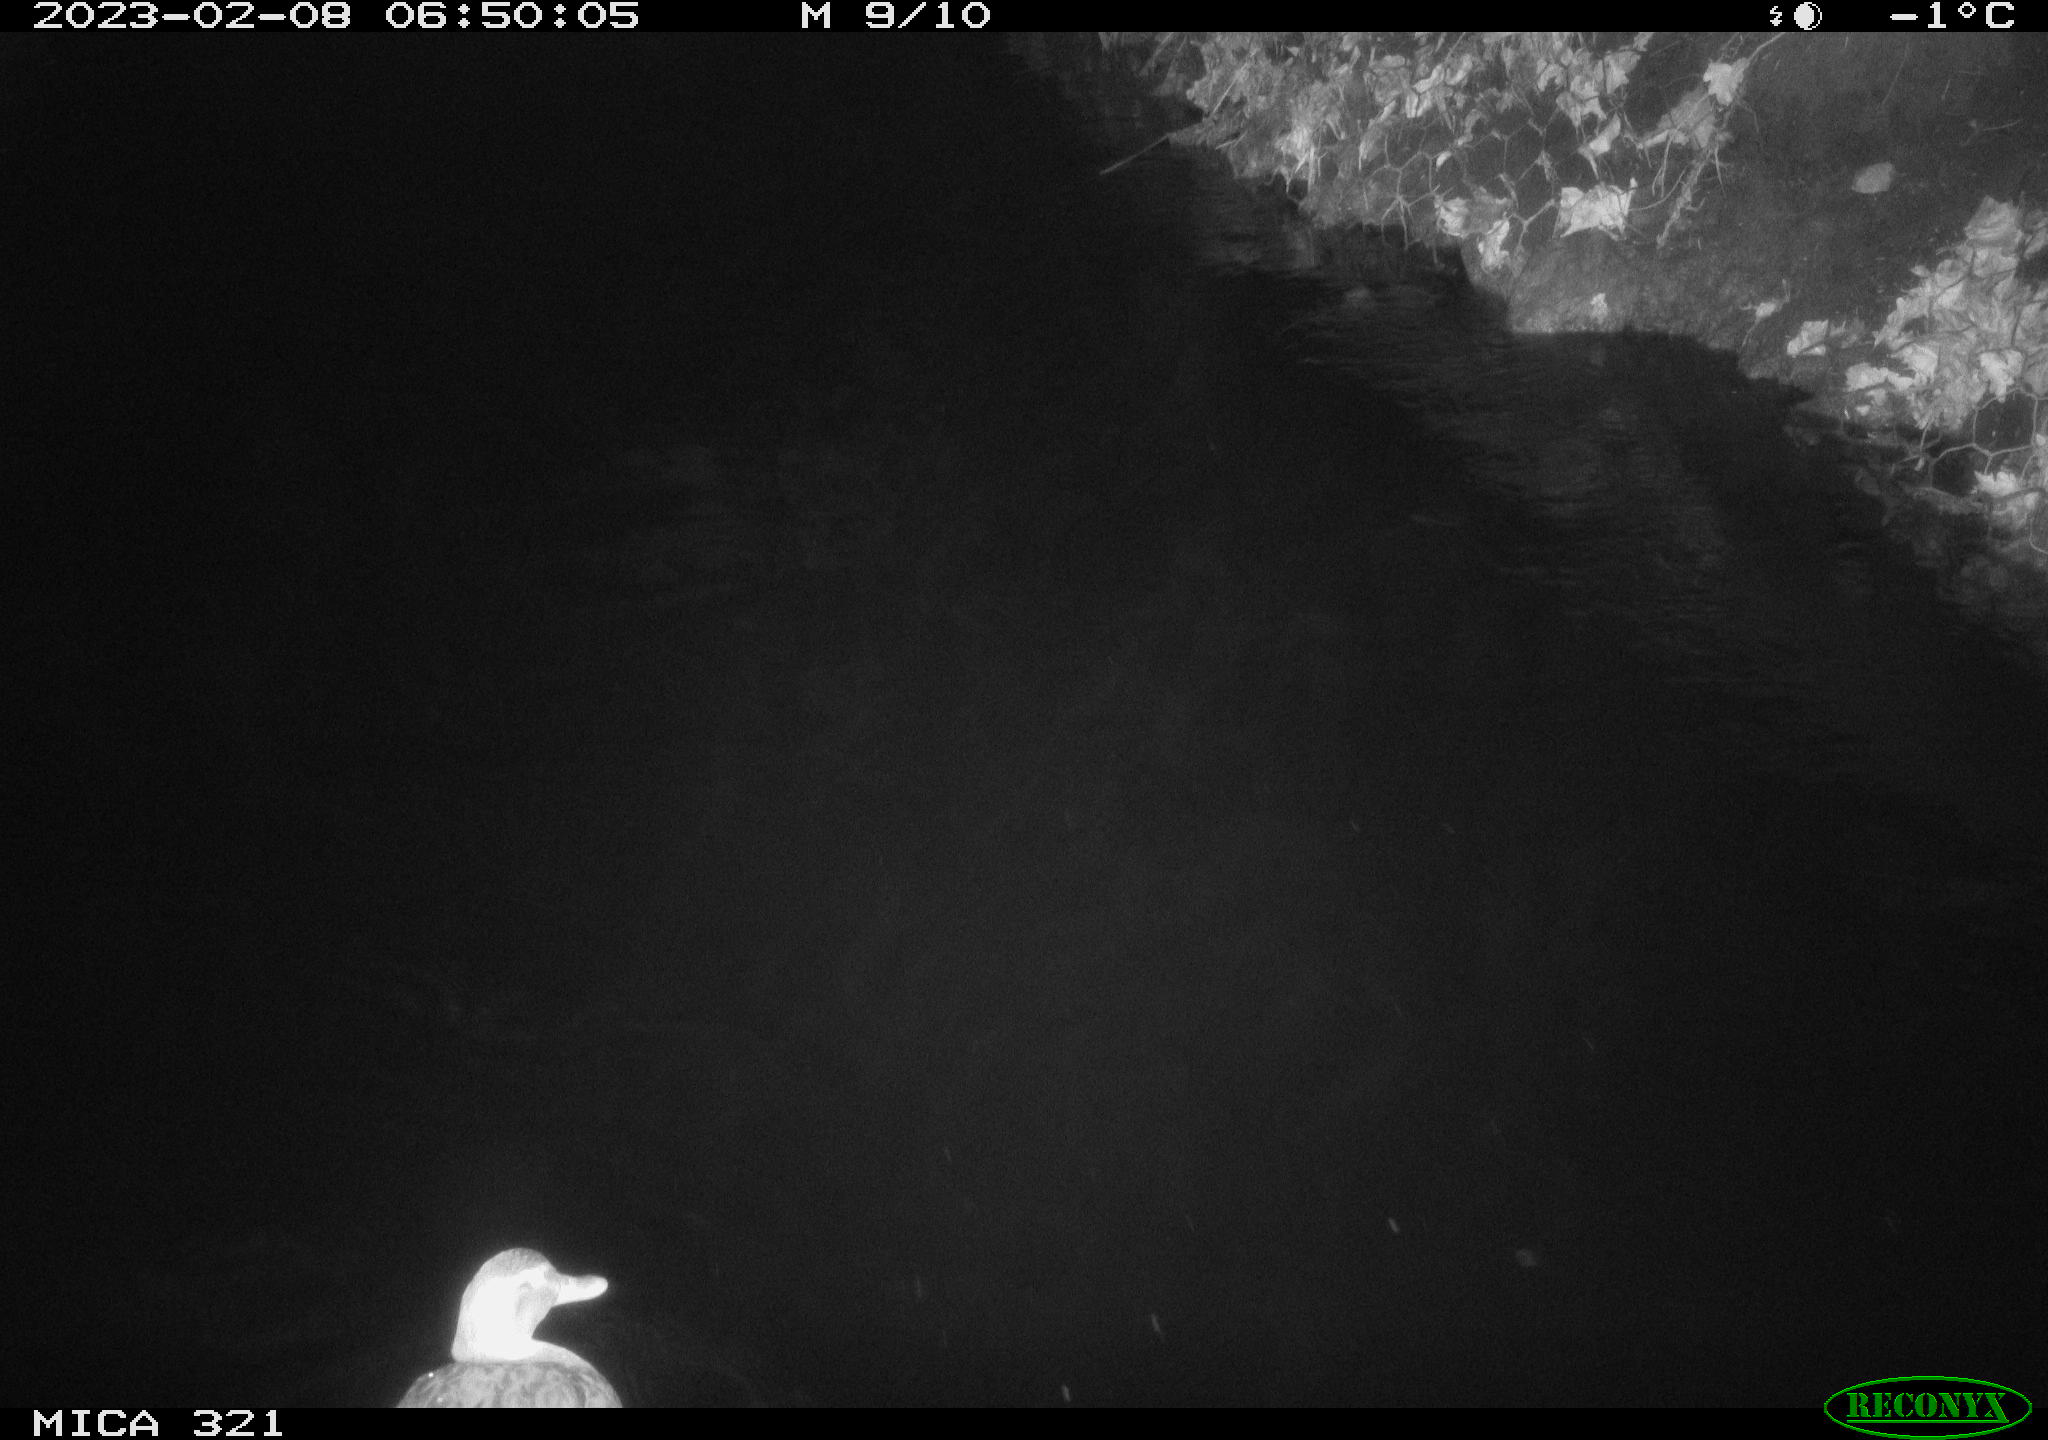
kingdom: Animalia
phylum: Chordata
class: Aves
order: Anseriformes
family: Anatidae
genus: Anas
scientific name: Anas
